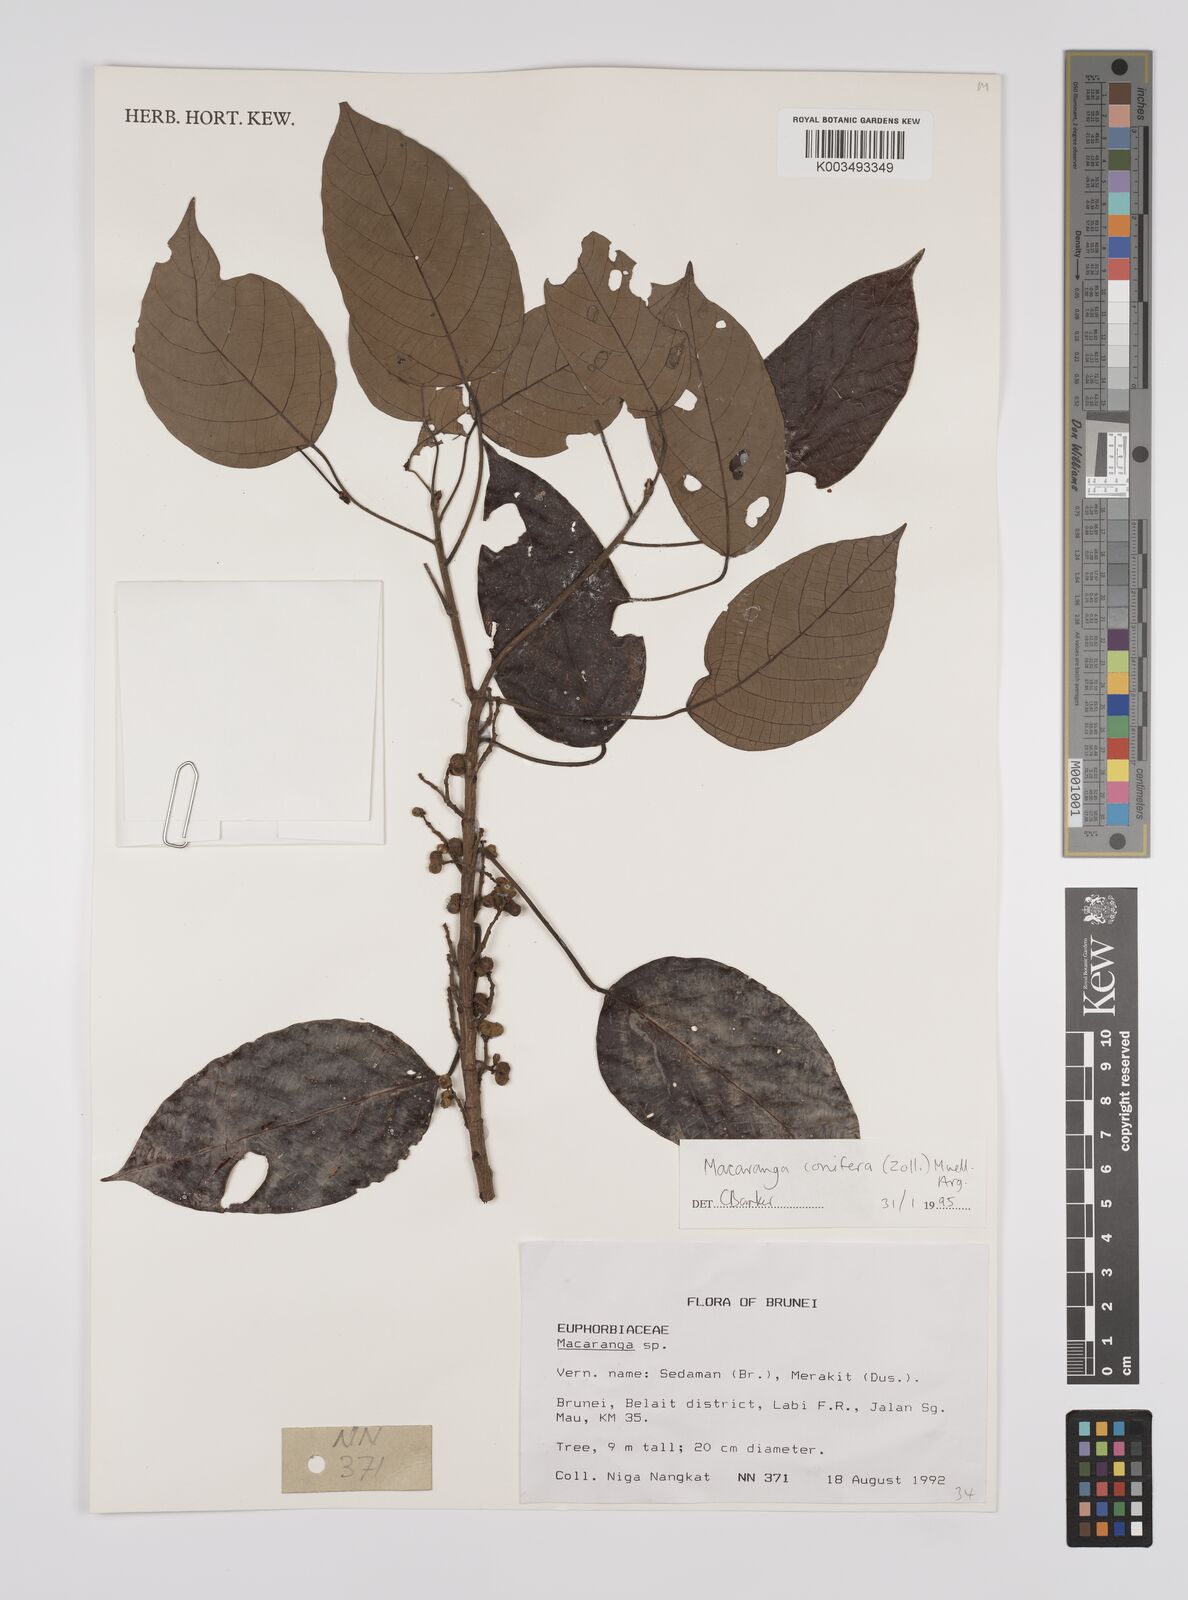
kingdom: Plantae
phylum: Tracheophyta
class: Magnoliopsida
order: Malpighiales
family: Euphorbiaceae
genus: Macaranga
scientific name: Macaranga conifera
